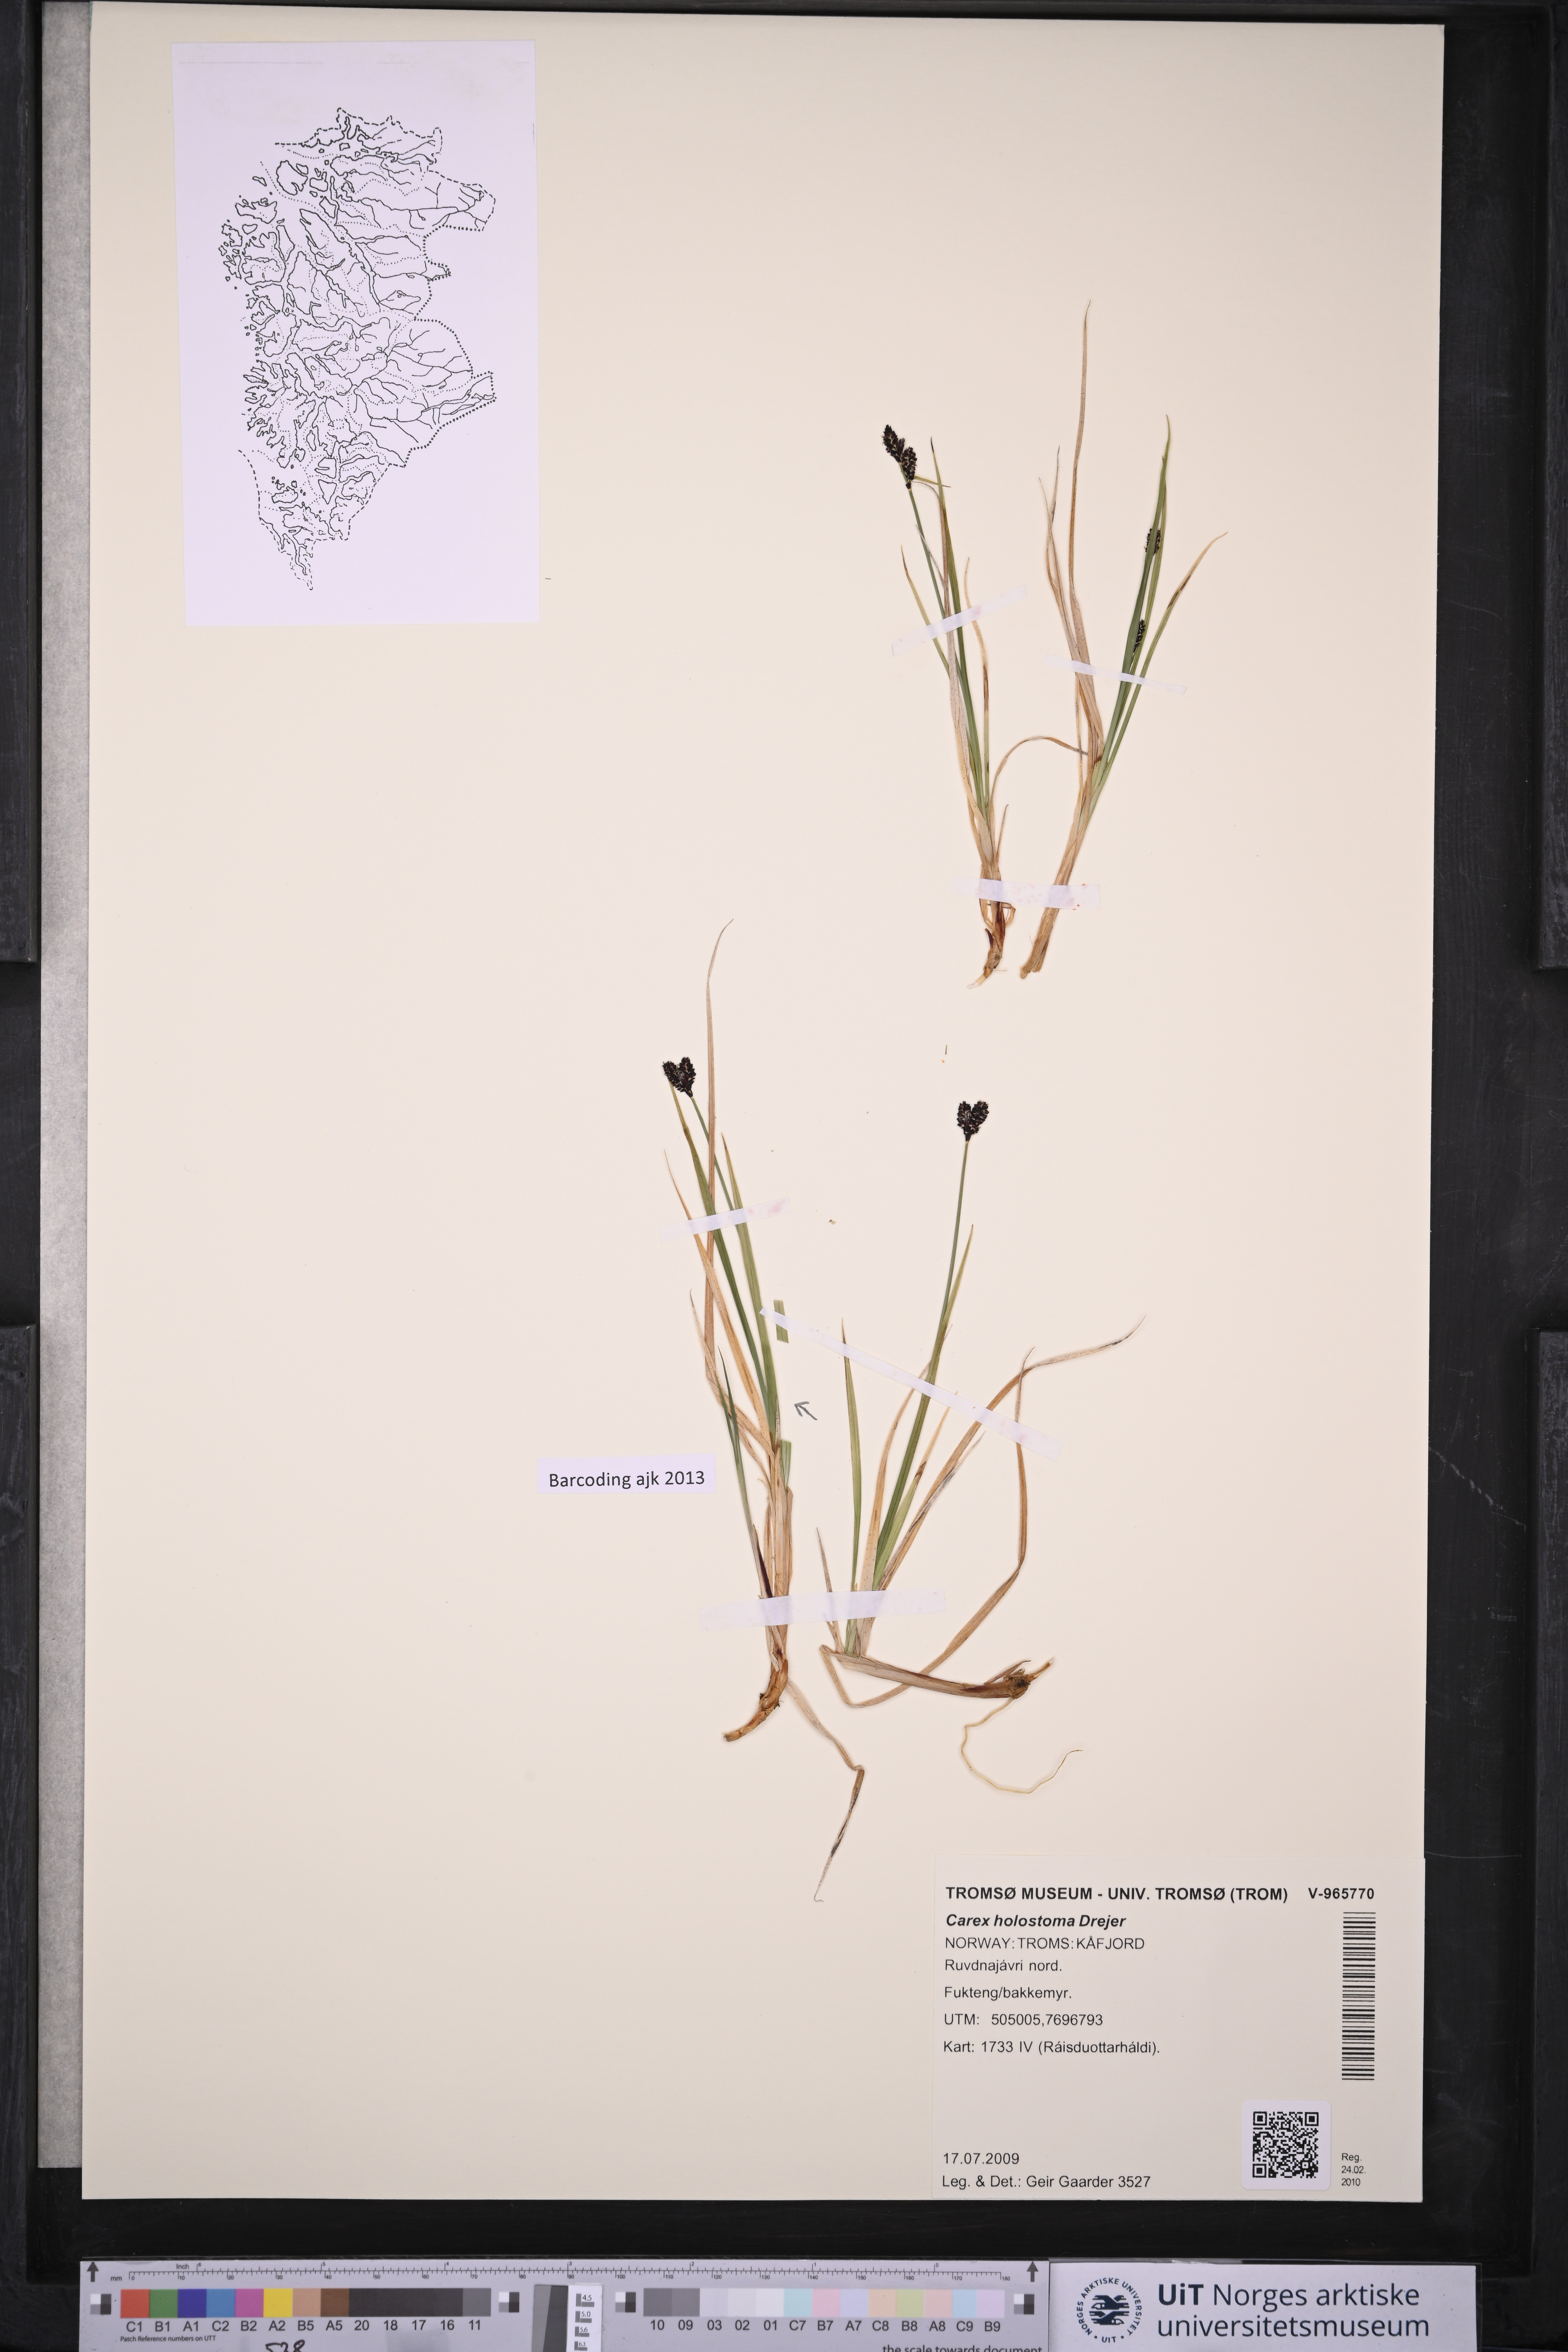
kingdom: Plantae
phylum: Tracheophyta
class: Liliopsida
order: Poales
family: Cyperaceae
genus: Carex
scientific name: Carex holostoma
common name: Arctic marsh sedge
